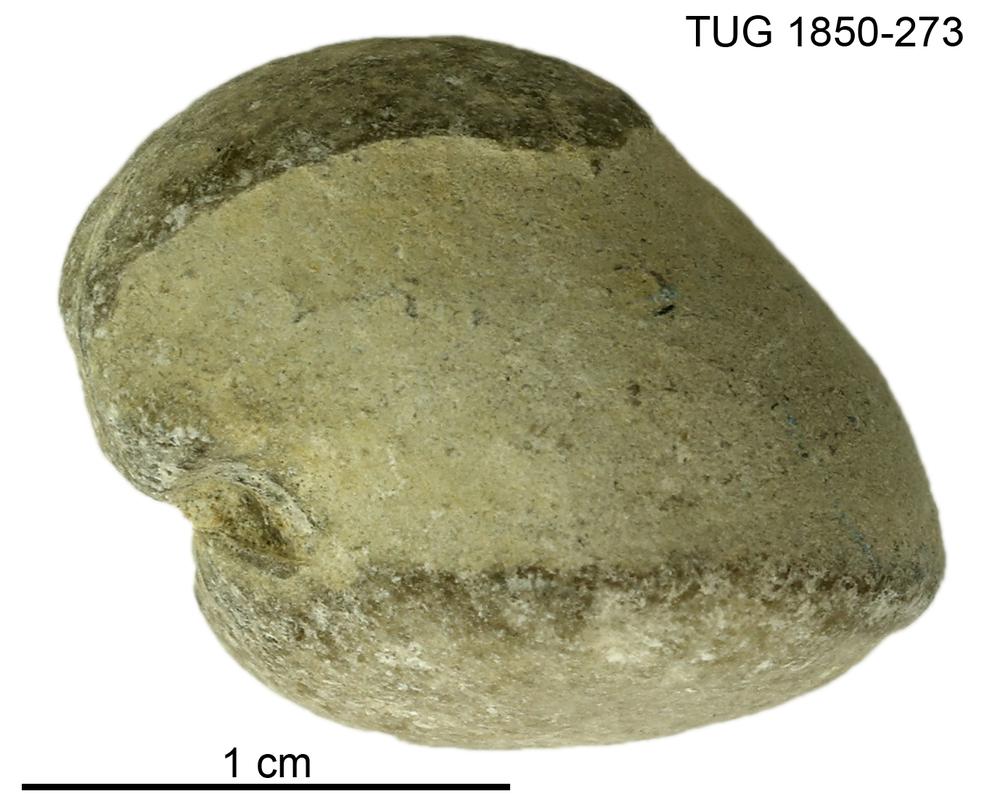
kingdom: Animalia
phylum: Brachiopoda
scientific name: Brachiopoda
